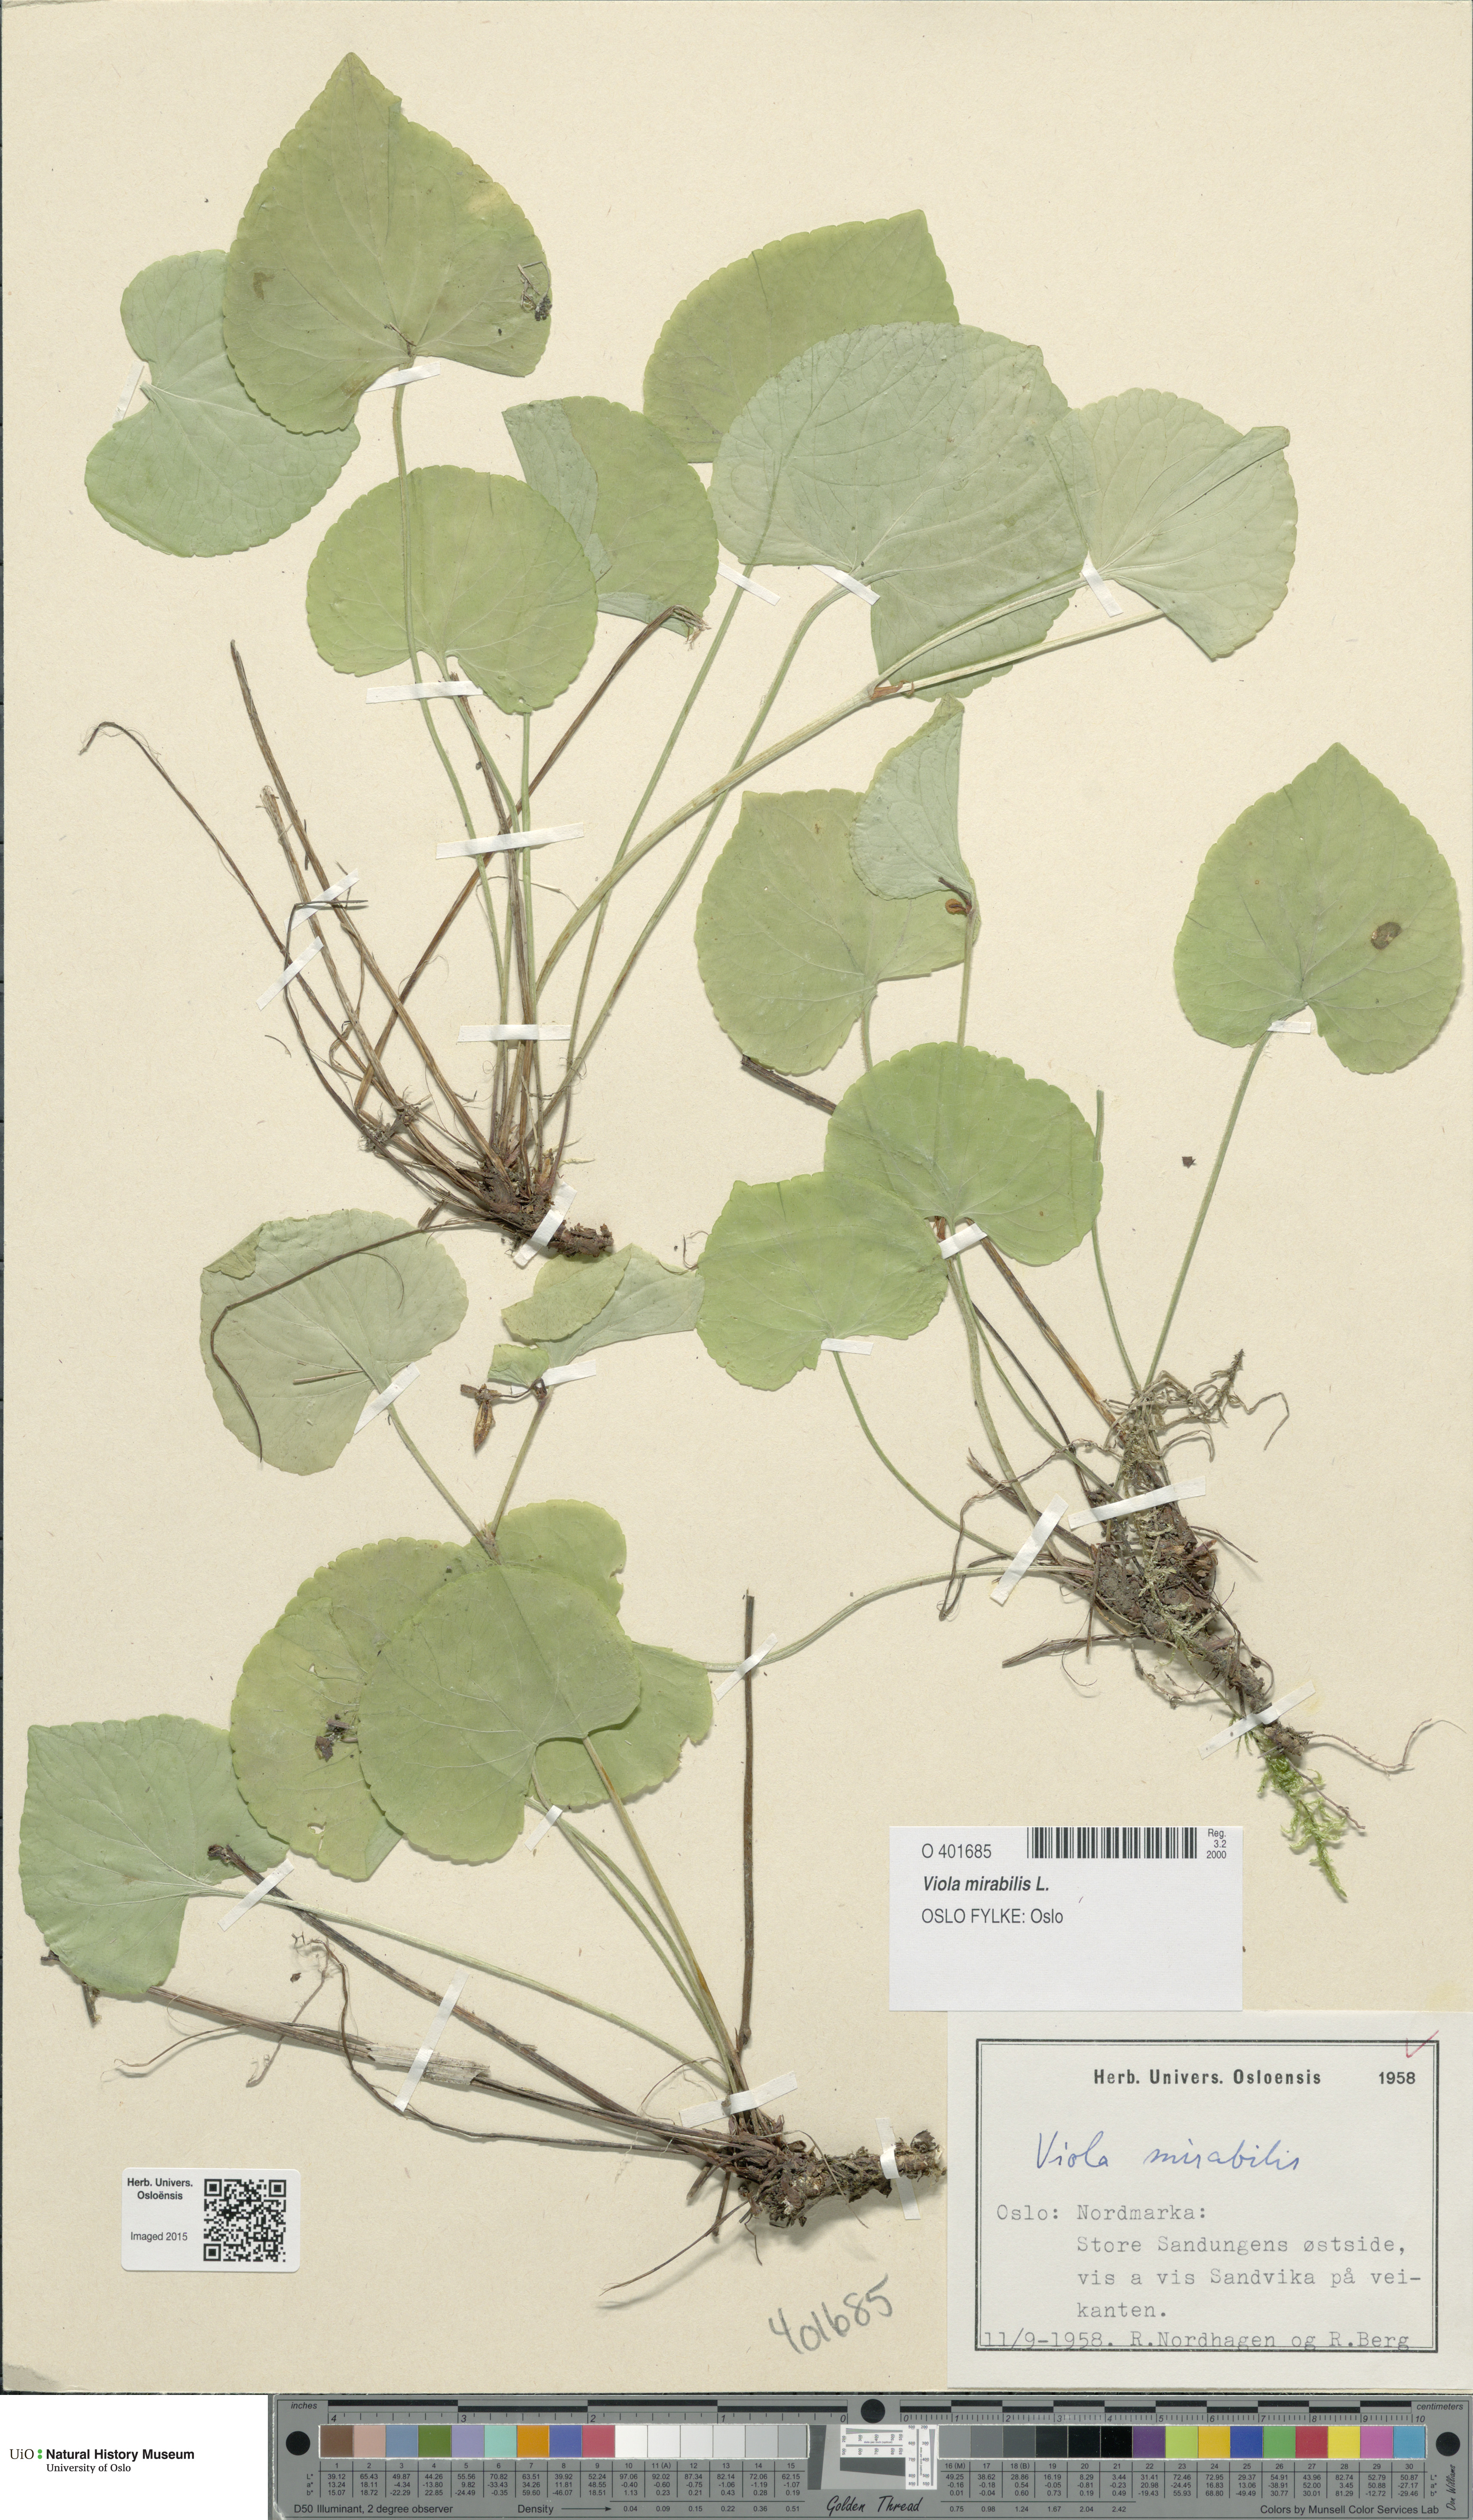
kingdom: Plantae
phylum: Tracheophyta
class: Magnoliopsida
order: Malpighiales
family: Violaceae
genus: Viola
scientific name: Viola mirabilis
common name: Wonder violet
